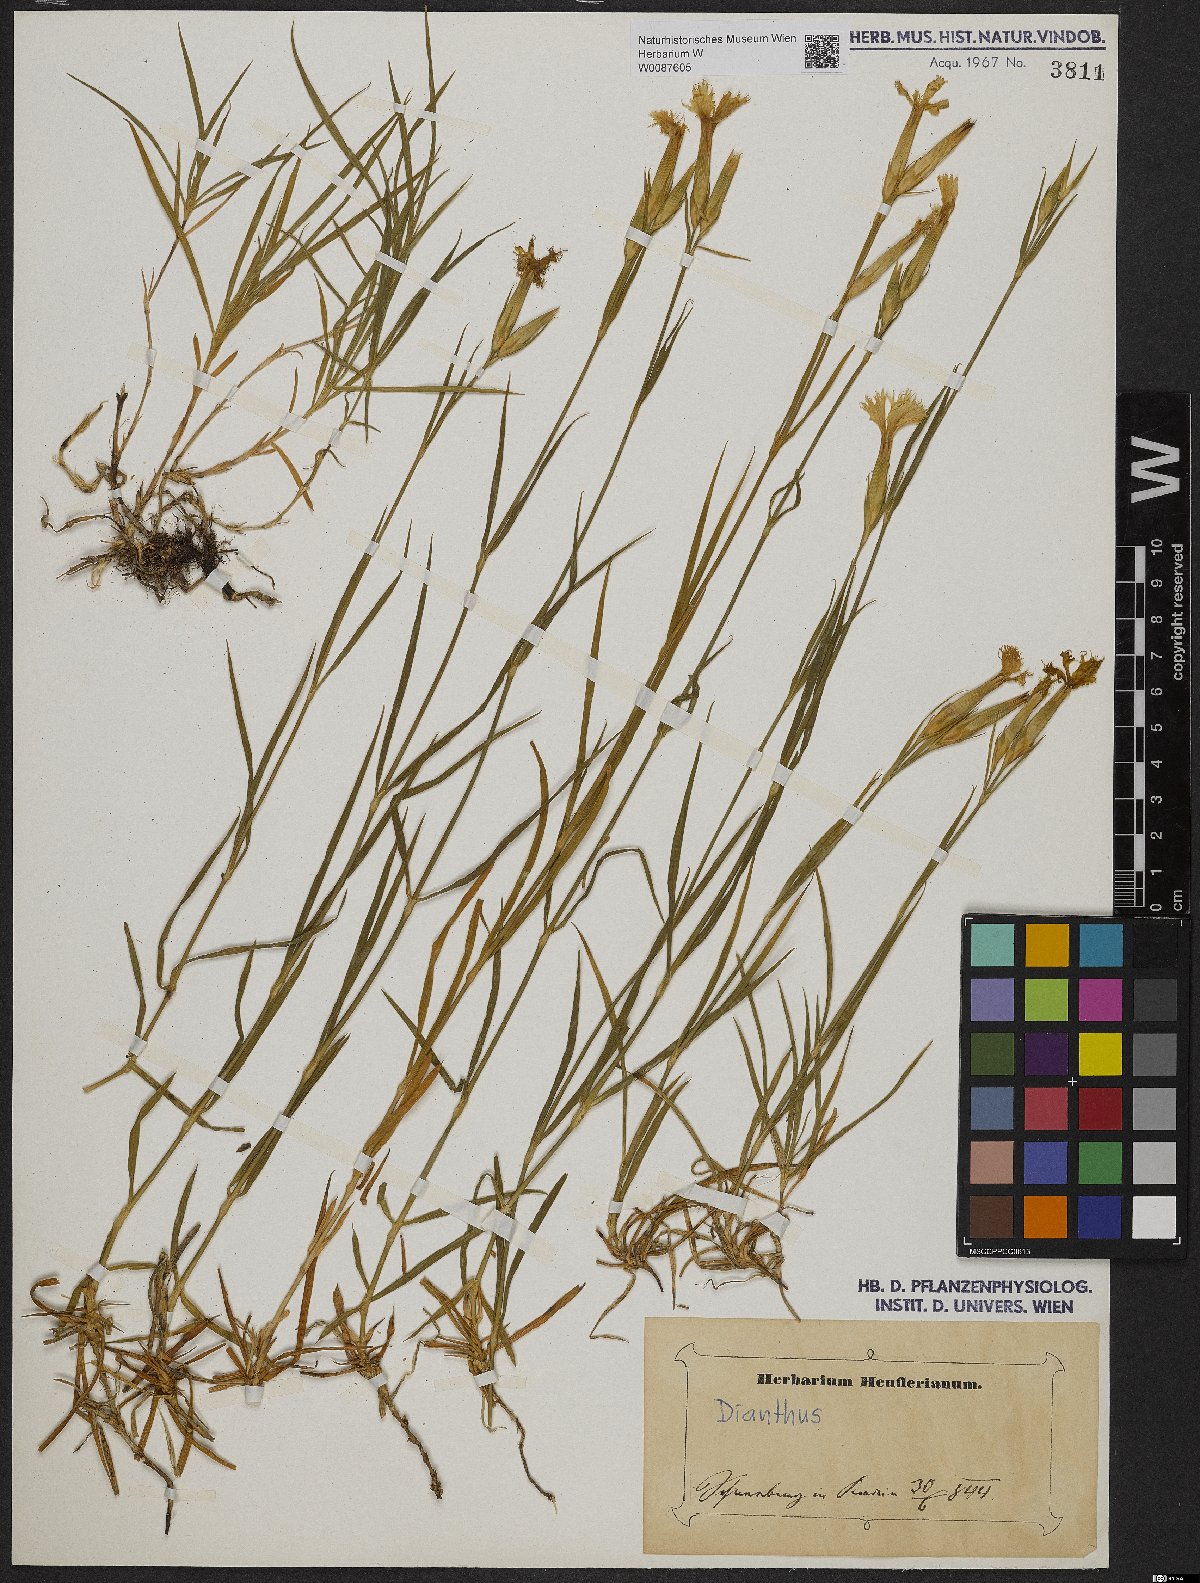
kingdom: Plantae
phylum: Tracheophyta
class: Magnoliopsida
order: Caryophyllales
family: Caryophyllaceae
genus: Dianthus
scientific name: Dianthus hyssopifolius
